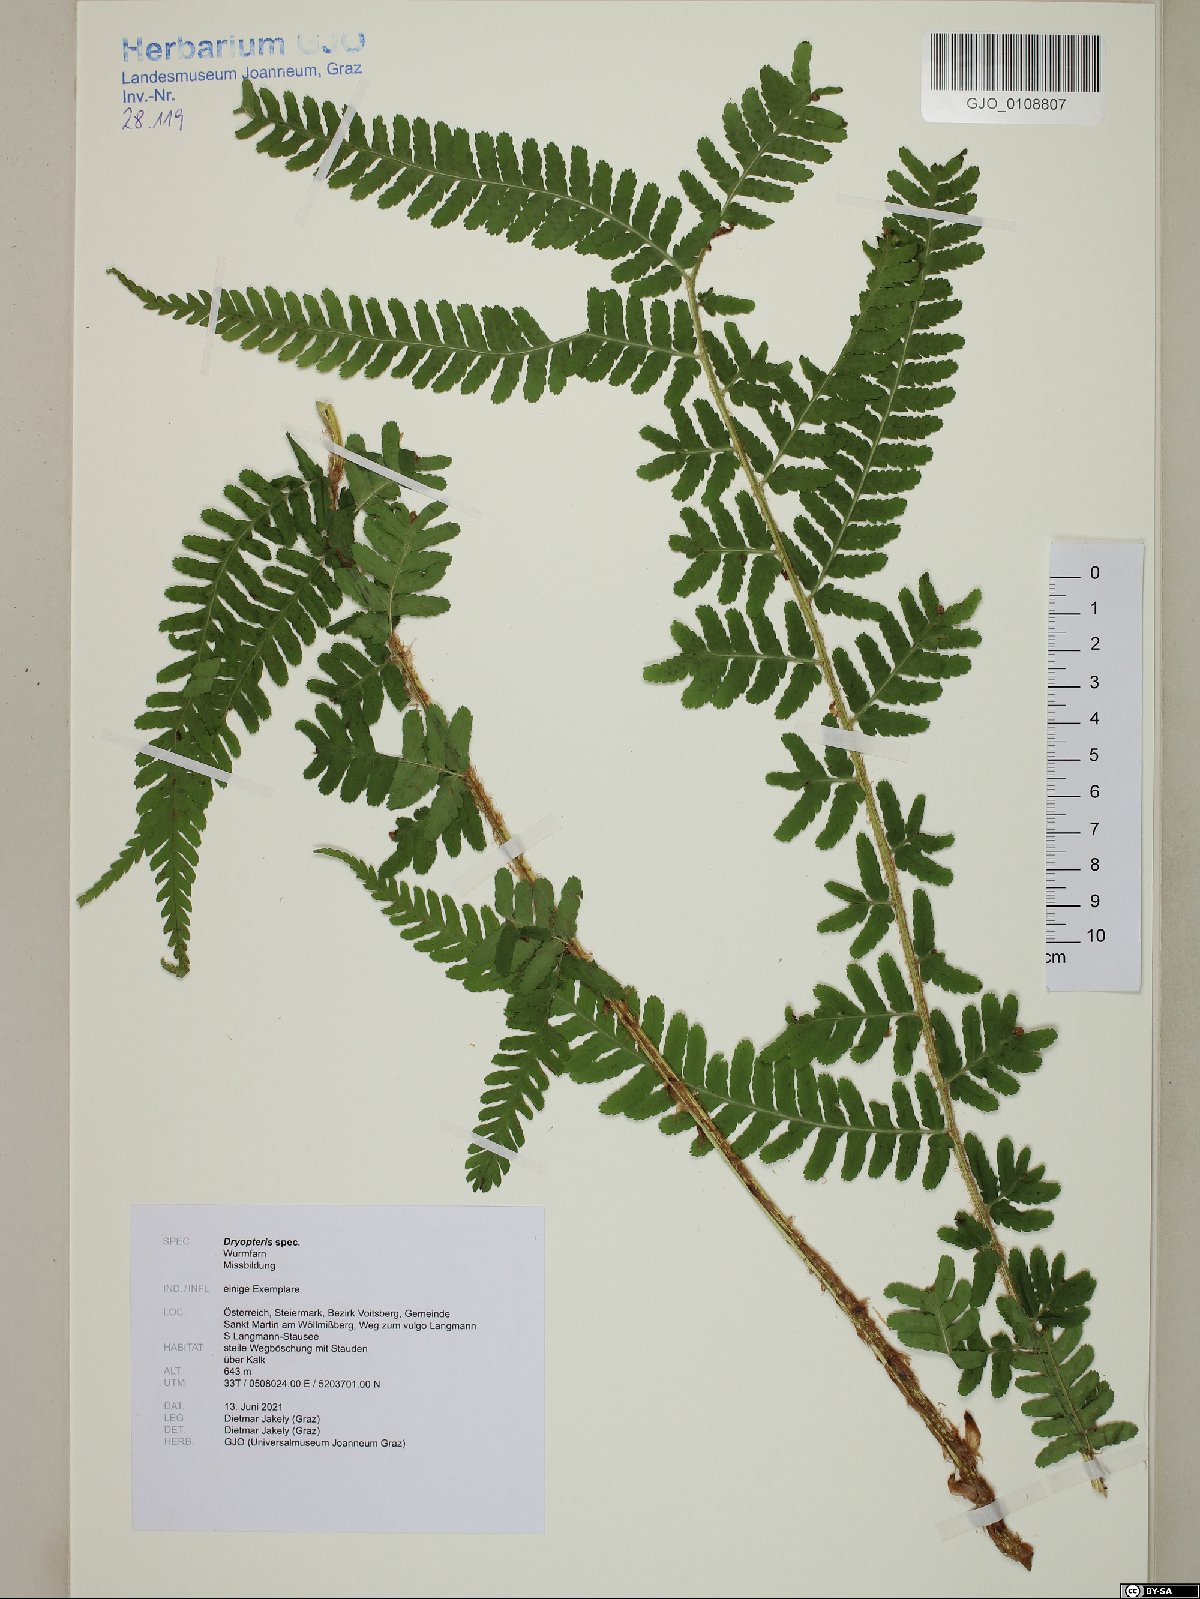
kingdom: Plantae
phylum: Tracheophyta
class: Polypodiopsida
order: Polypodiales
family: Dryopteridaceae
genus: Dryopteris
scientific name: Dryopteris
